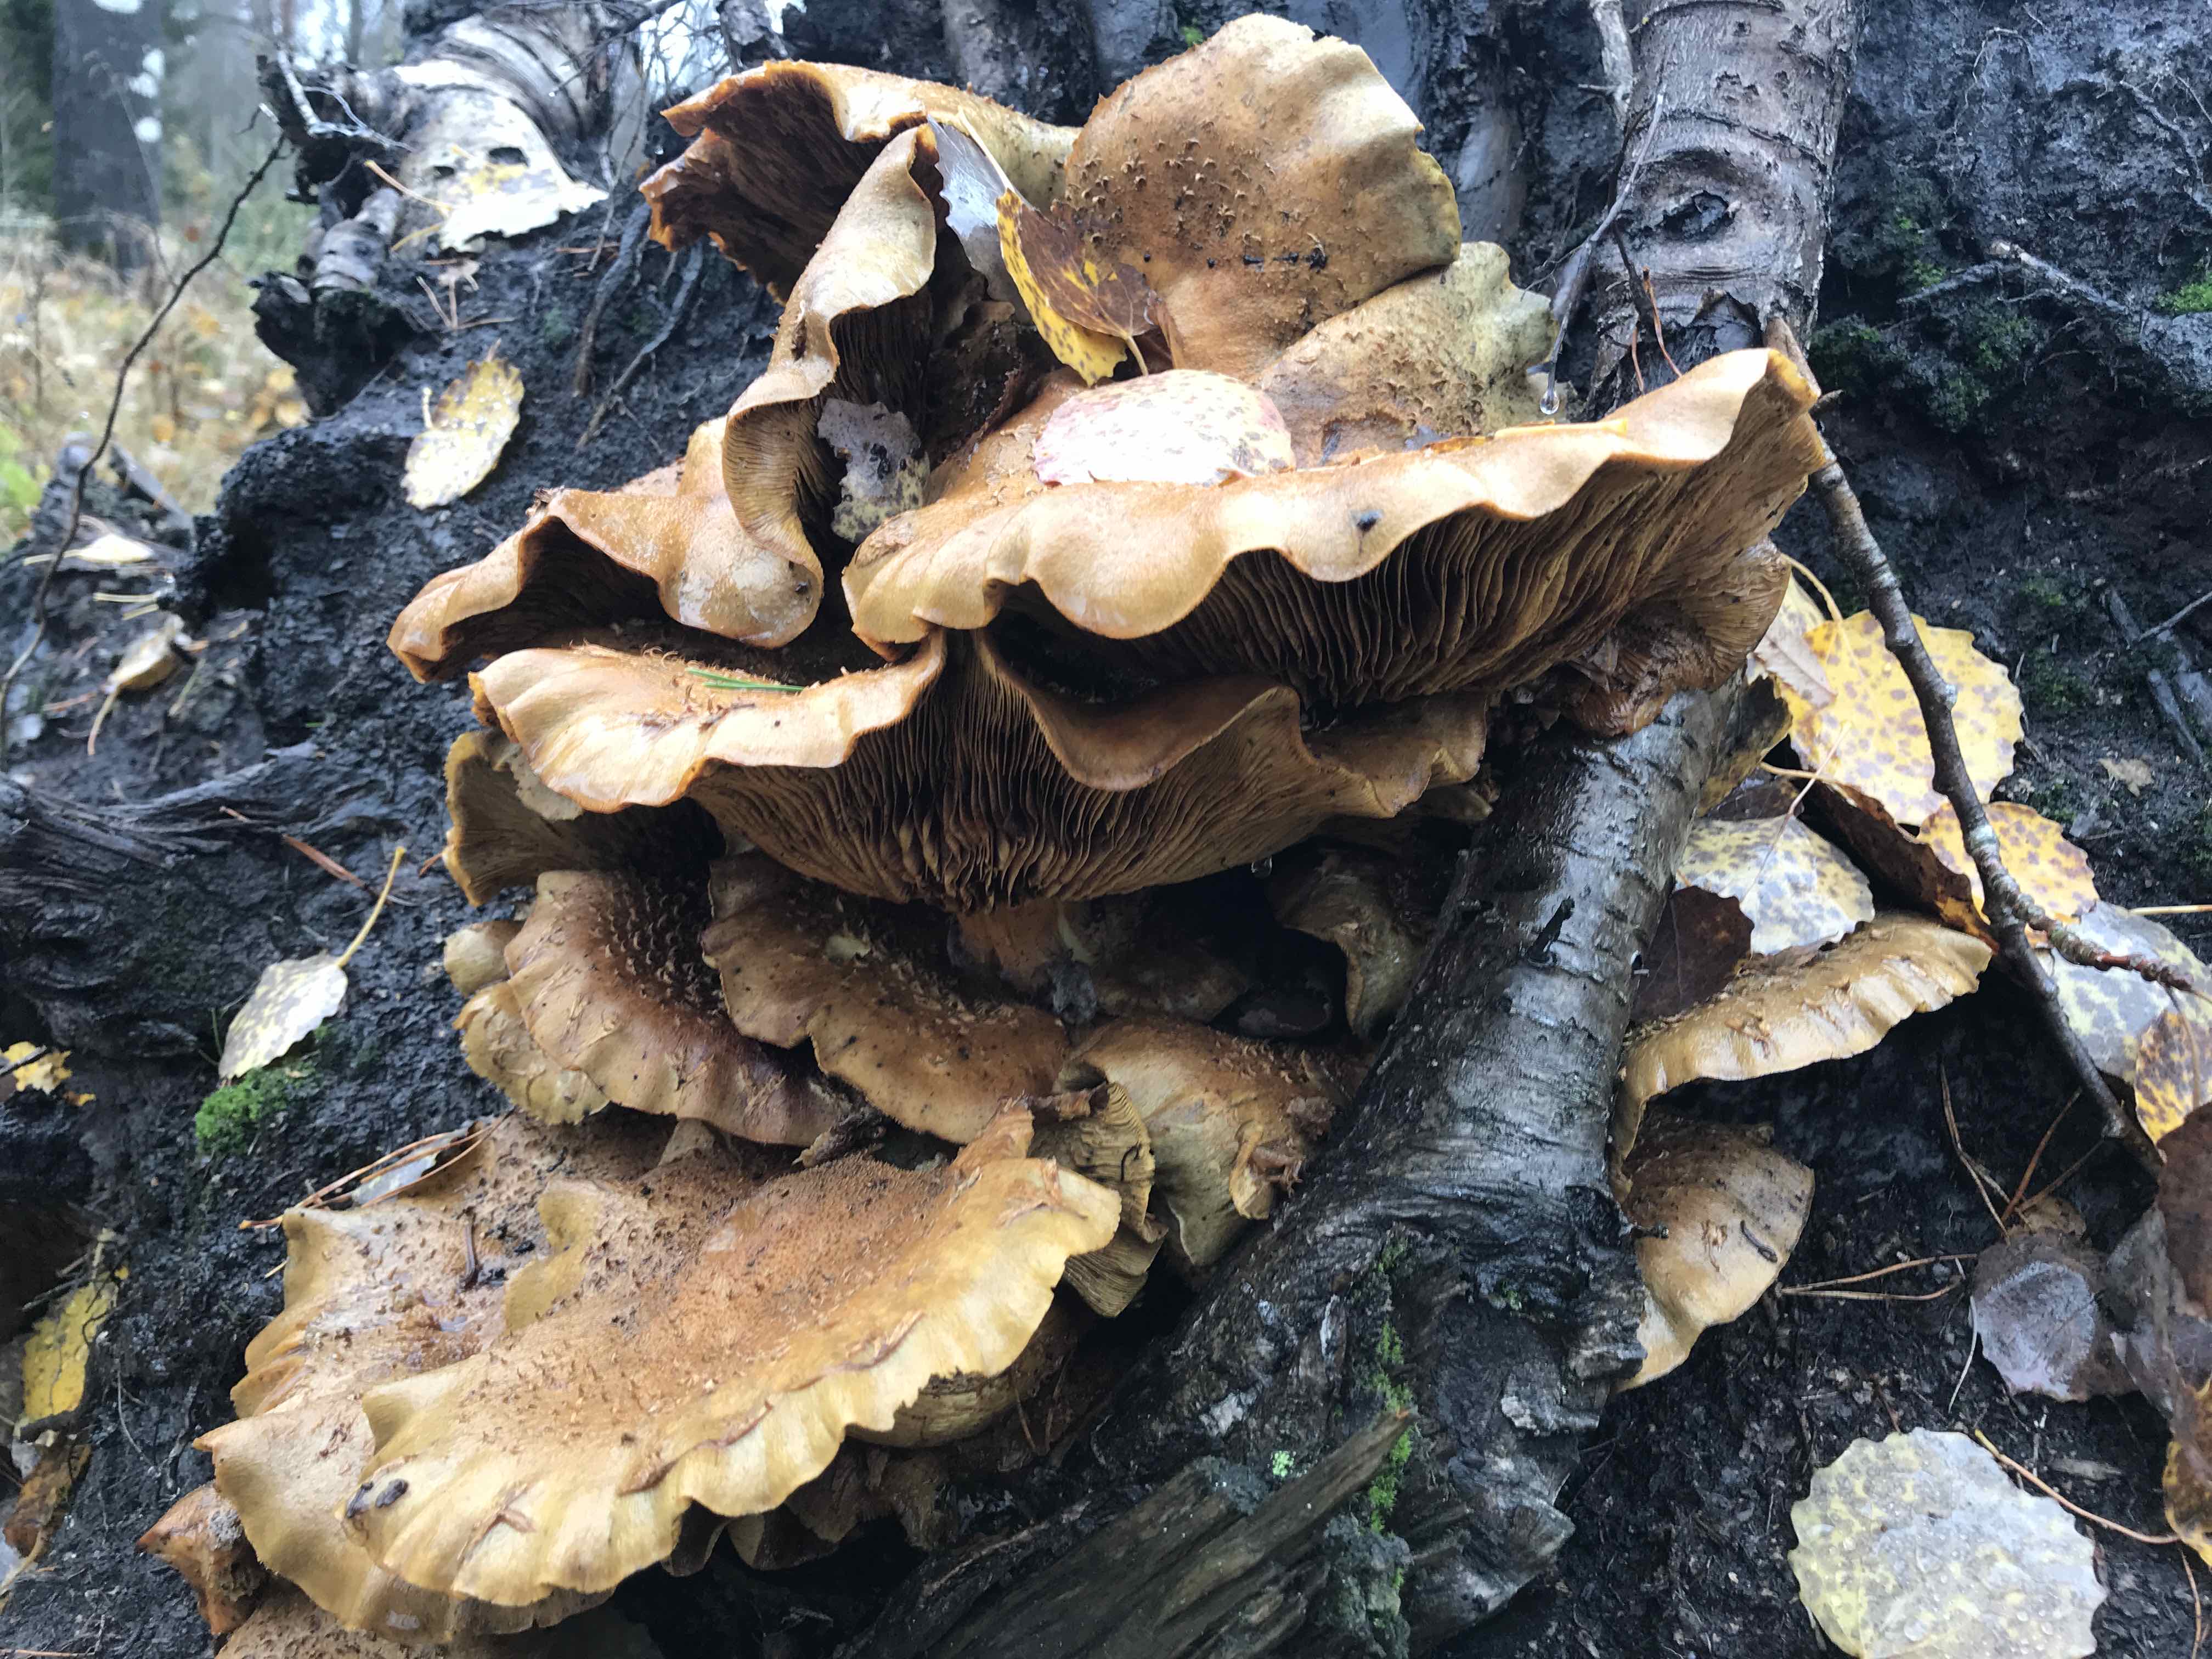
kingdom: Fungi
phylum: Basidiomycota
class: Agaricomycetes
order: Agaricales
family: Strophariaceae
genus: Pholiota
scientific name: Pholiota squarrosa
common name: krumskællet skælhat
